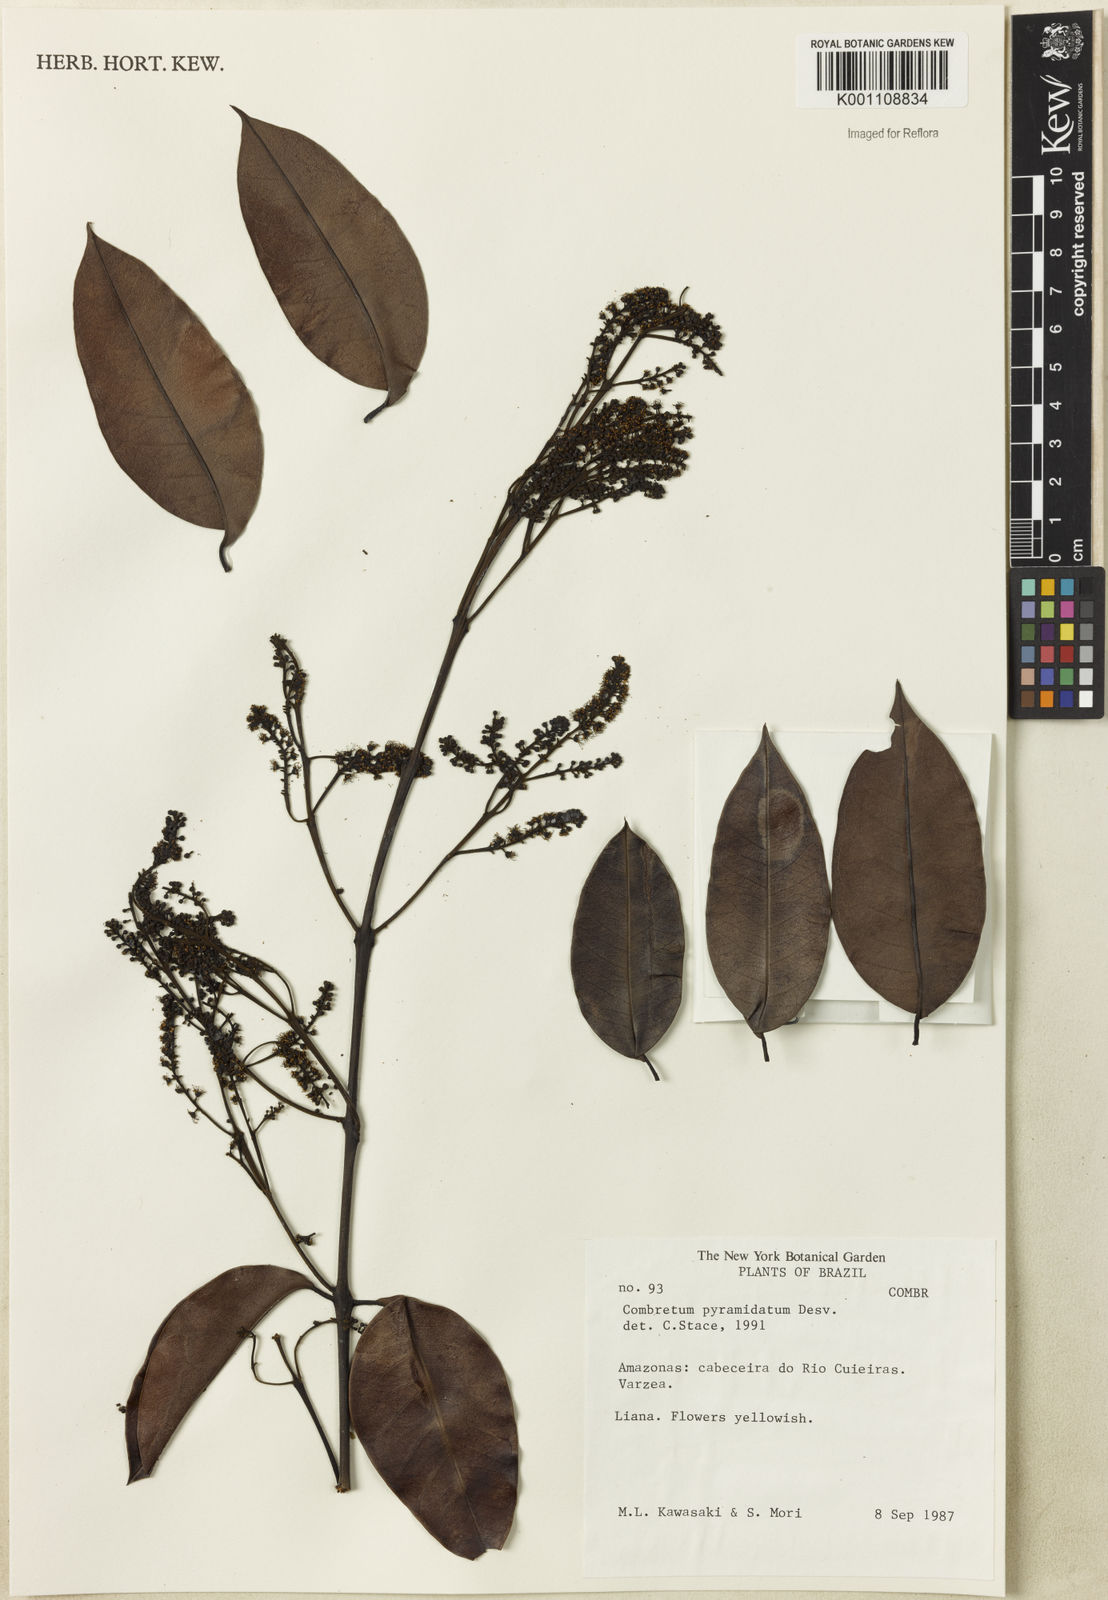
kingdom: Plantae
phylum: Tracheophyta
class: Magnoliopsida
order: Myrtales
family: Combretaceae
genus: Combretum
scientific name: Combretum pyramidatum
